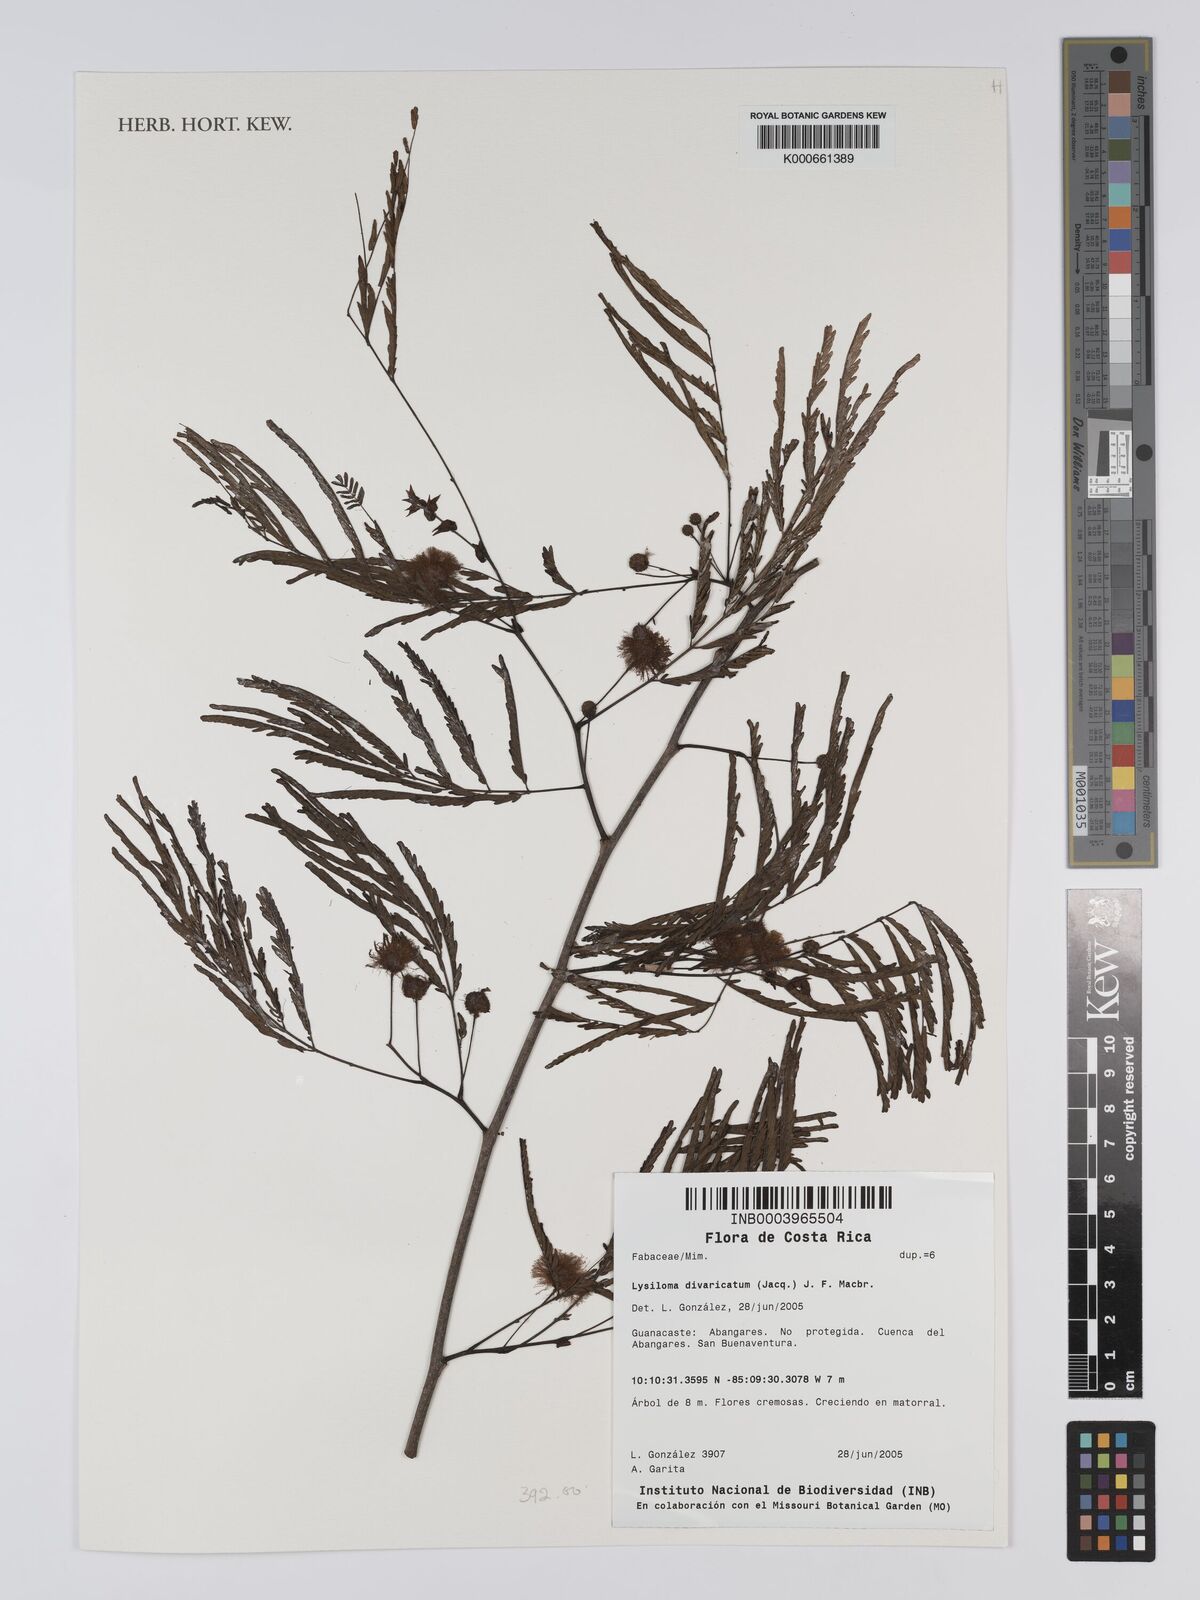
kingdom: Plantae
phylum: Tracheophyta
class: Magnoliopsida
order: Fabales
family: Fabaceae
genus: Lysiloma
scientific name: Lysiloma divaricatum
